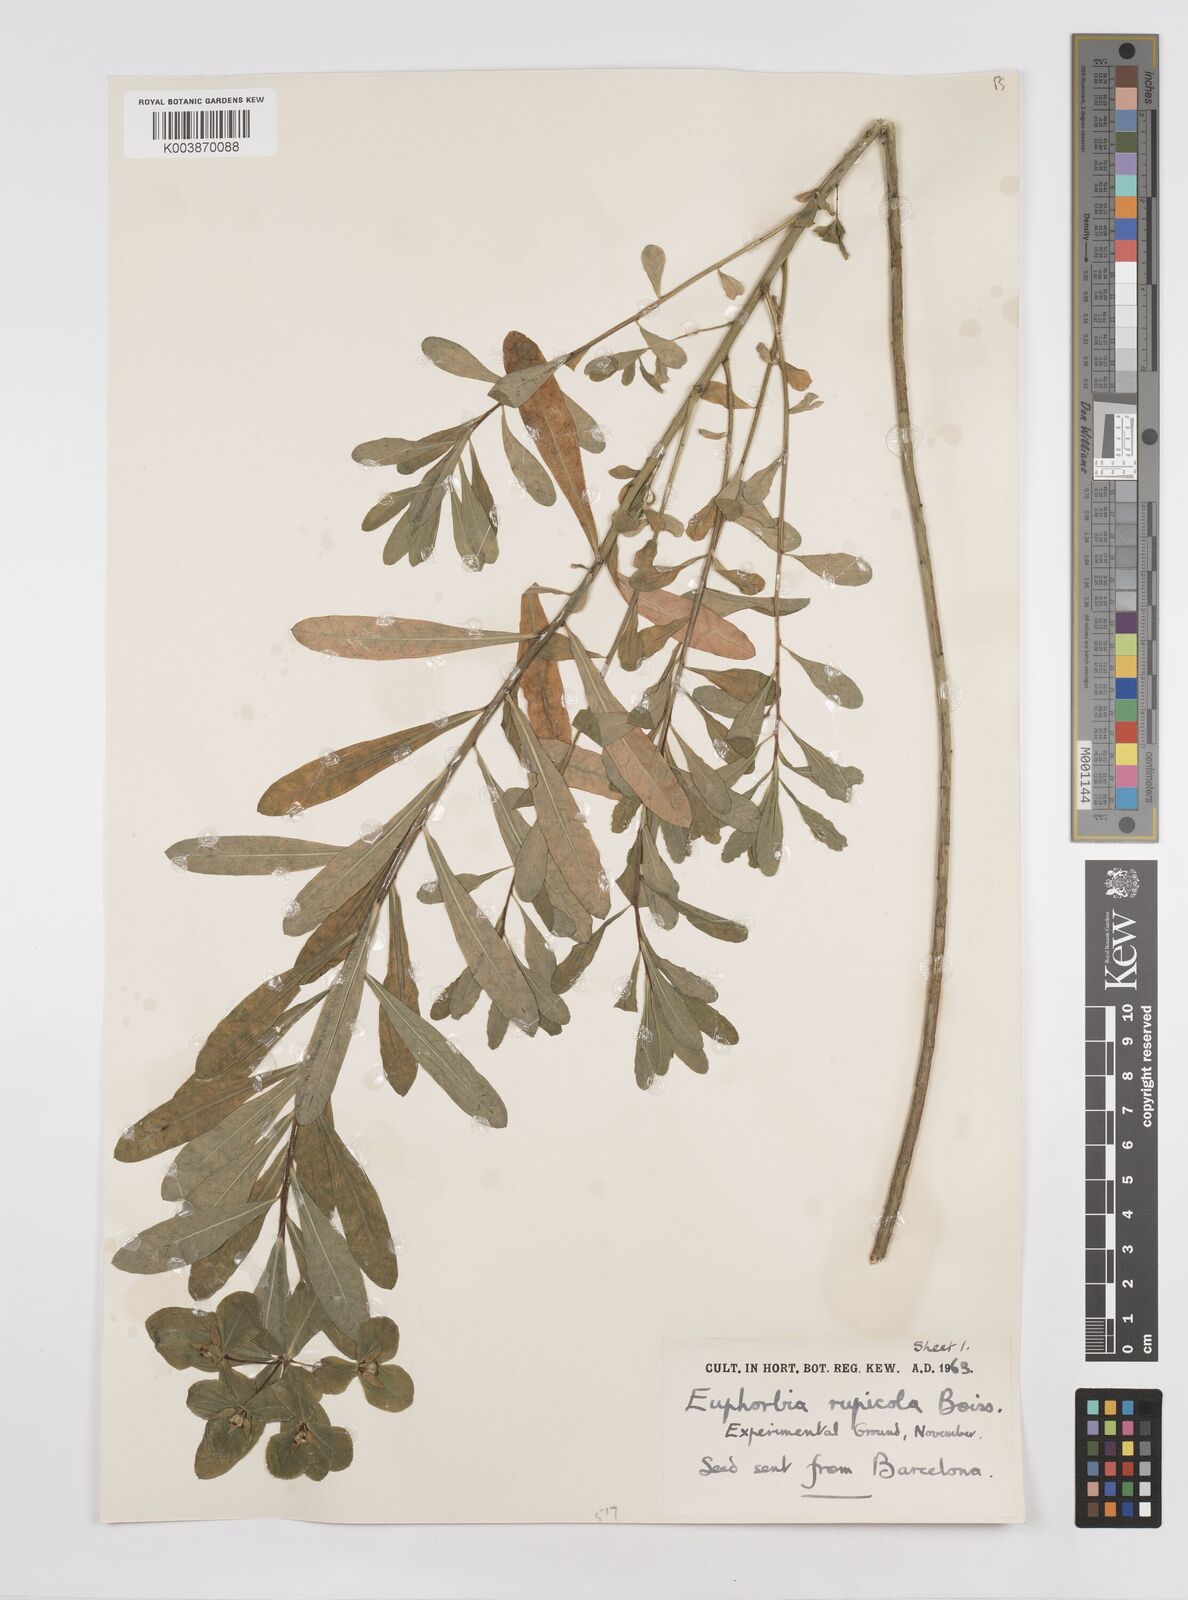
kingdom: Plantae
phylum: Tracheophyta
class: Magnoliopsida
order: Malpighiales
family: Euphorbiaceae
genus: Euphorbia
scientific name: Euphorbia
